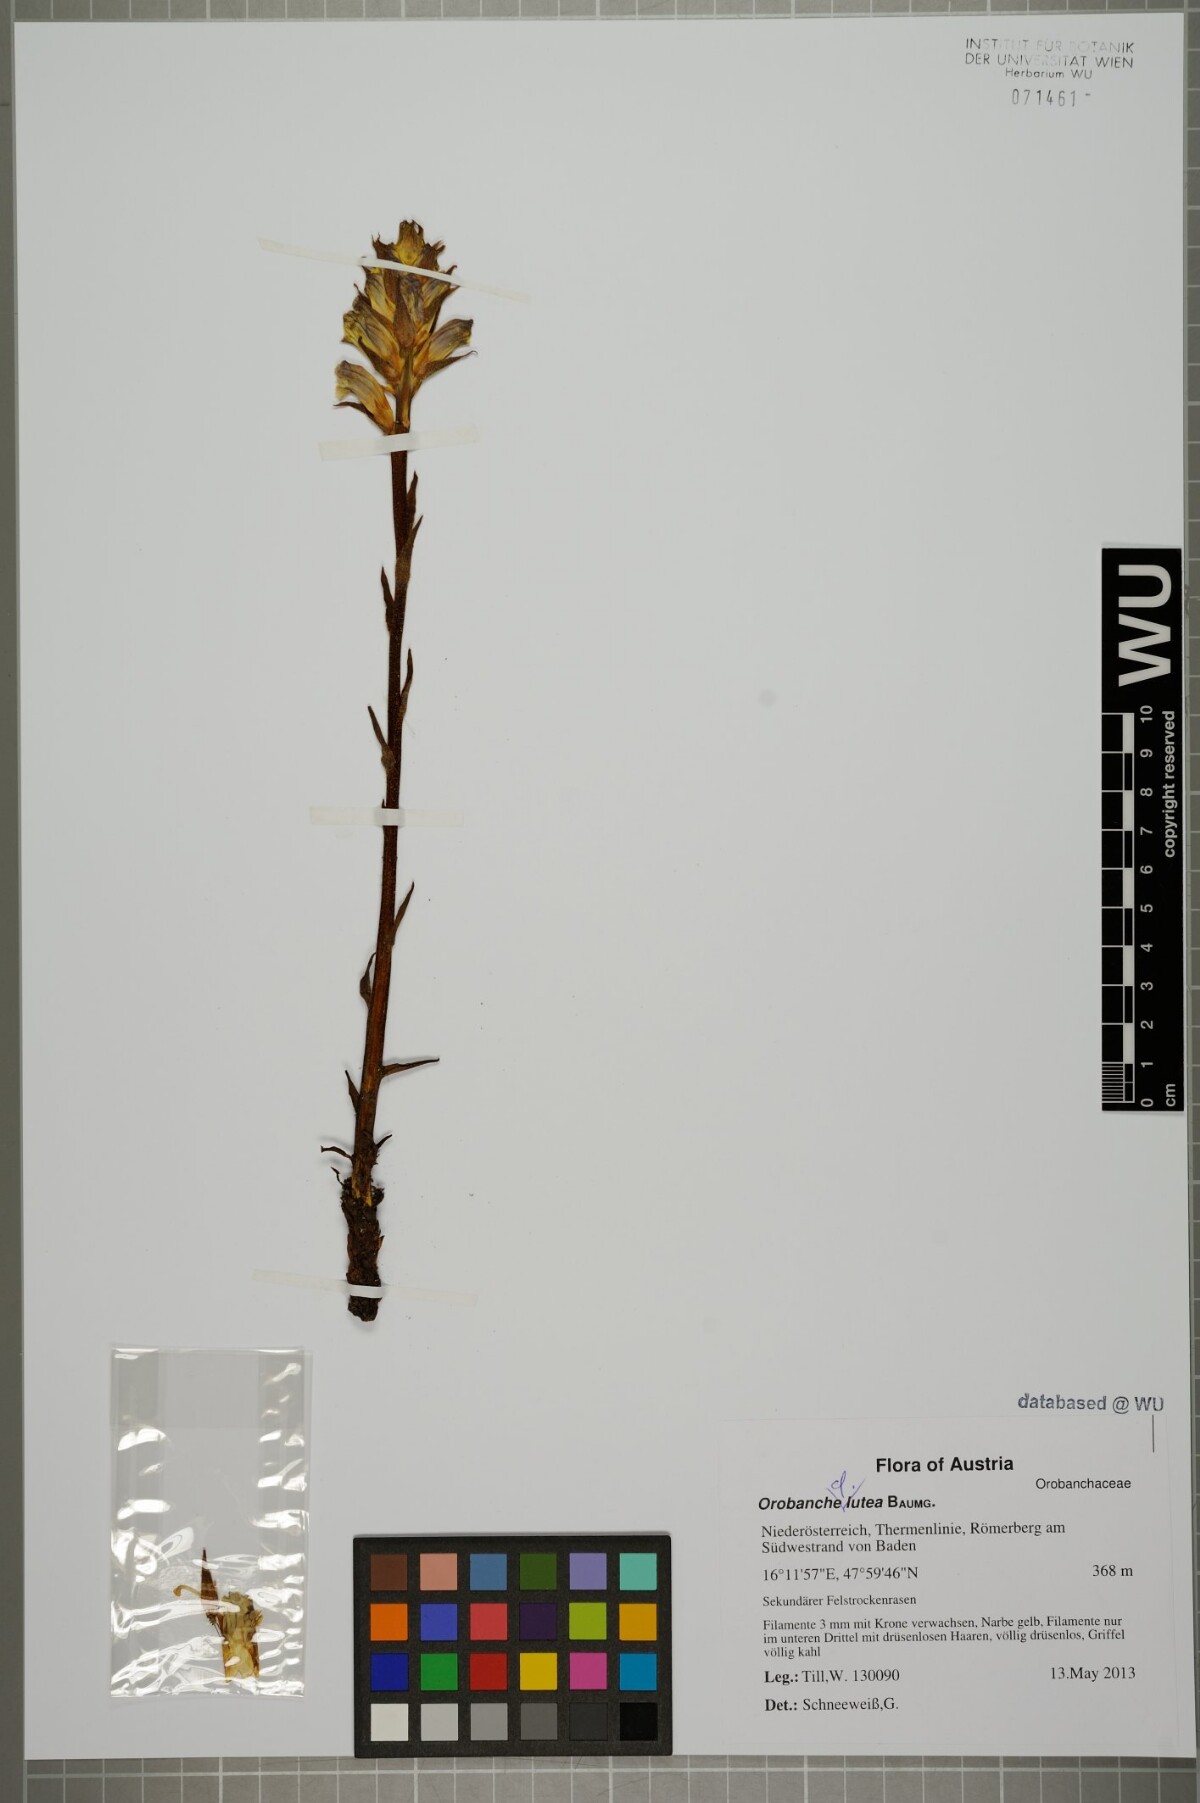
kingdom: Plantae
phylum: Tracheophyta
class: Magnoliopsida
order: Lamiales
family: Orobanchaceae
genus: Orobanche
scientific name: Orobanche lutea
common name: Yellow broomrape
